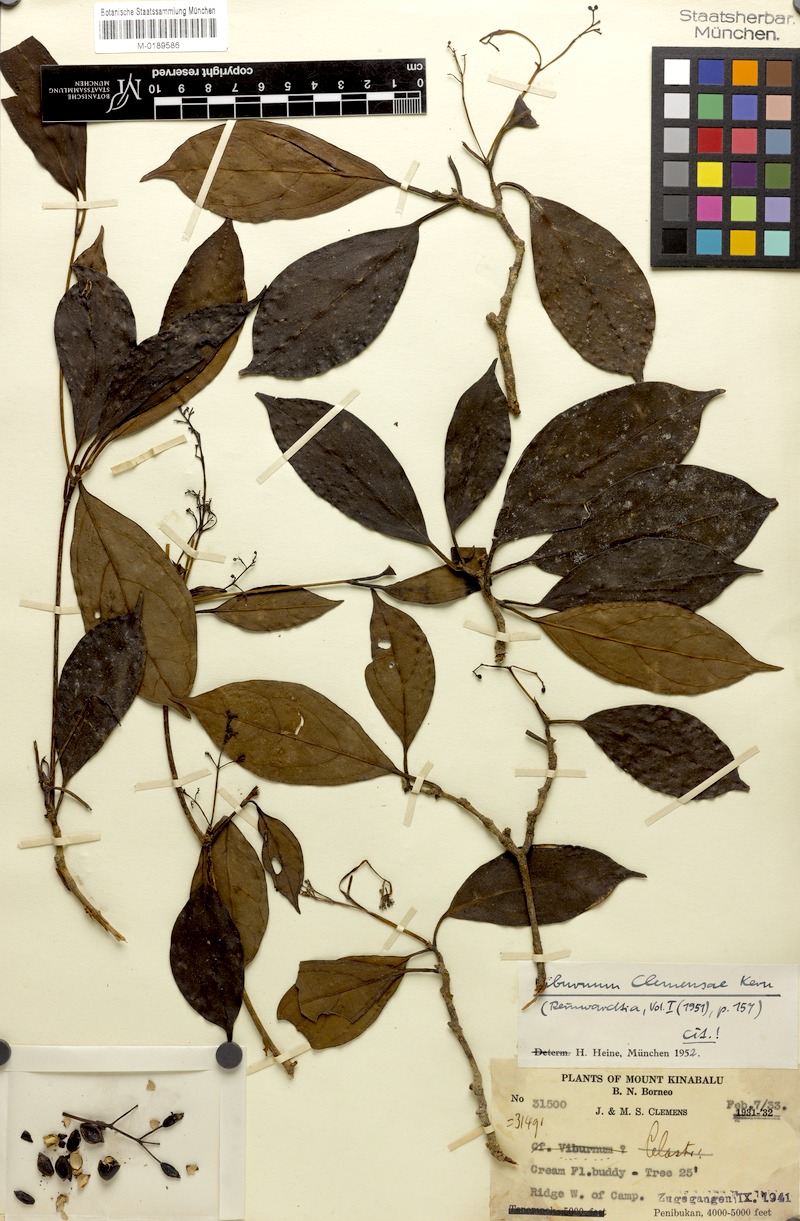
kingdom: Plantae
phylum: Tracheophyta
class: Magnoliopsida
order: Dipsacales
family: Viburnaceae
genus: Viburnum
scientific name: Viburnum clemensae
